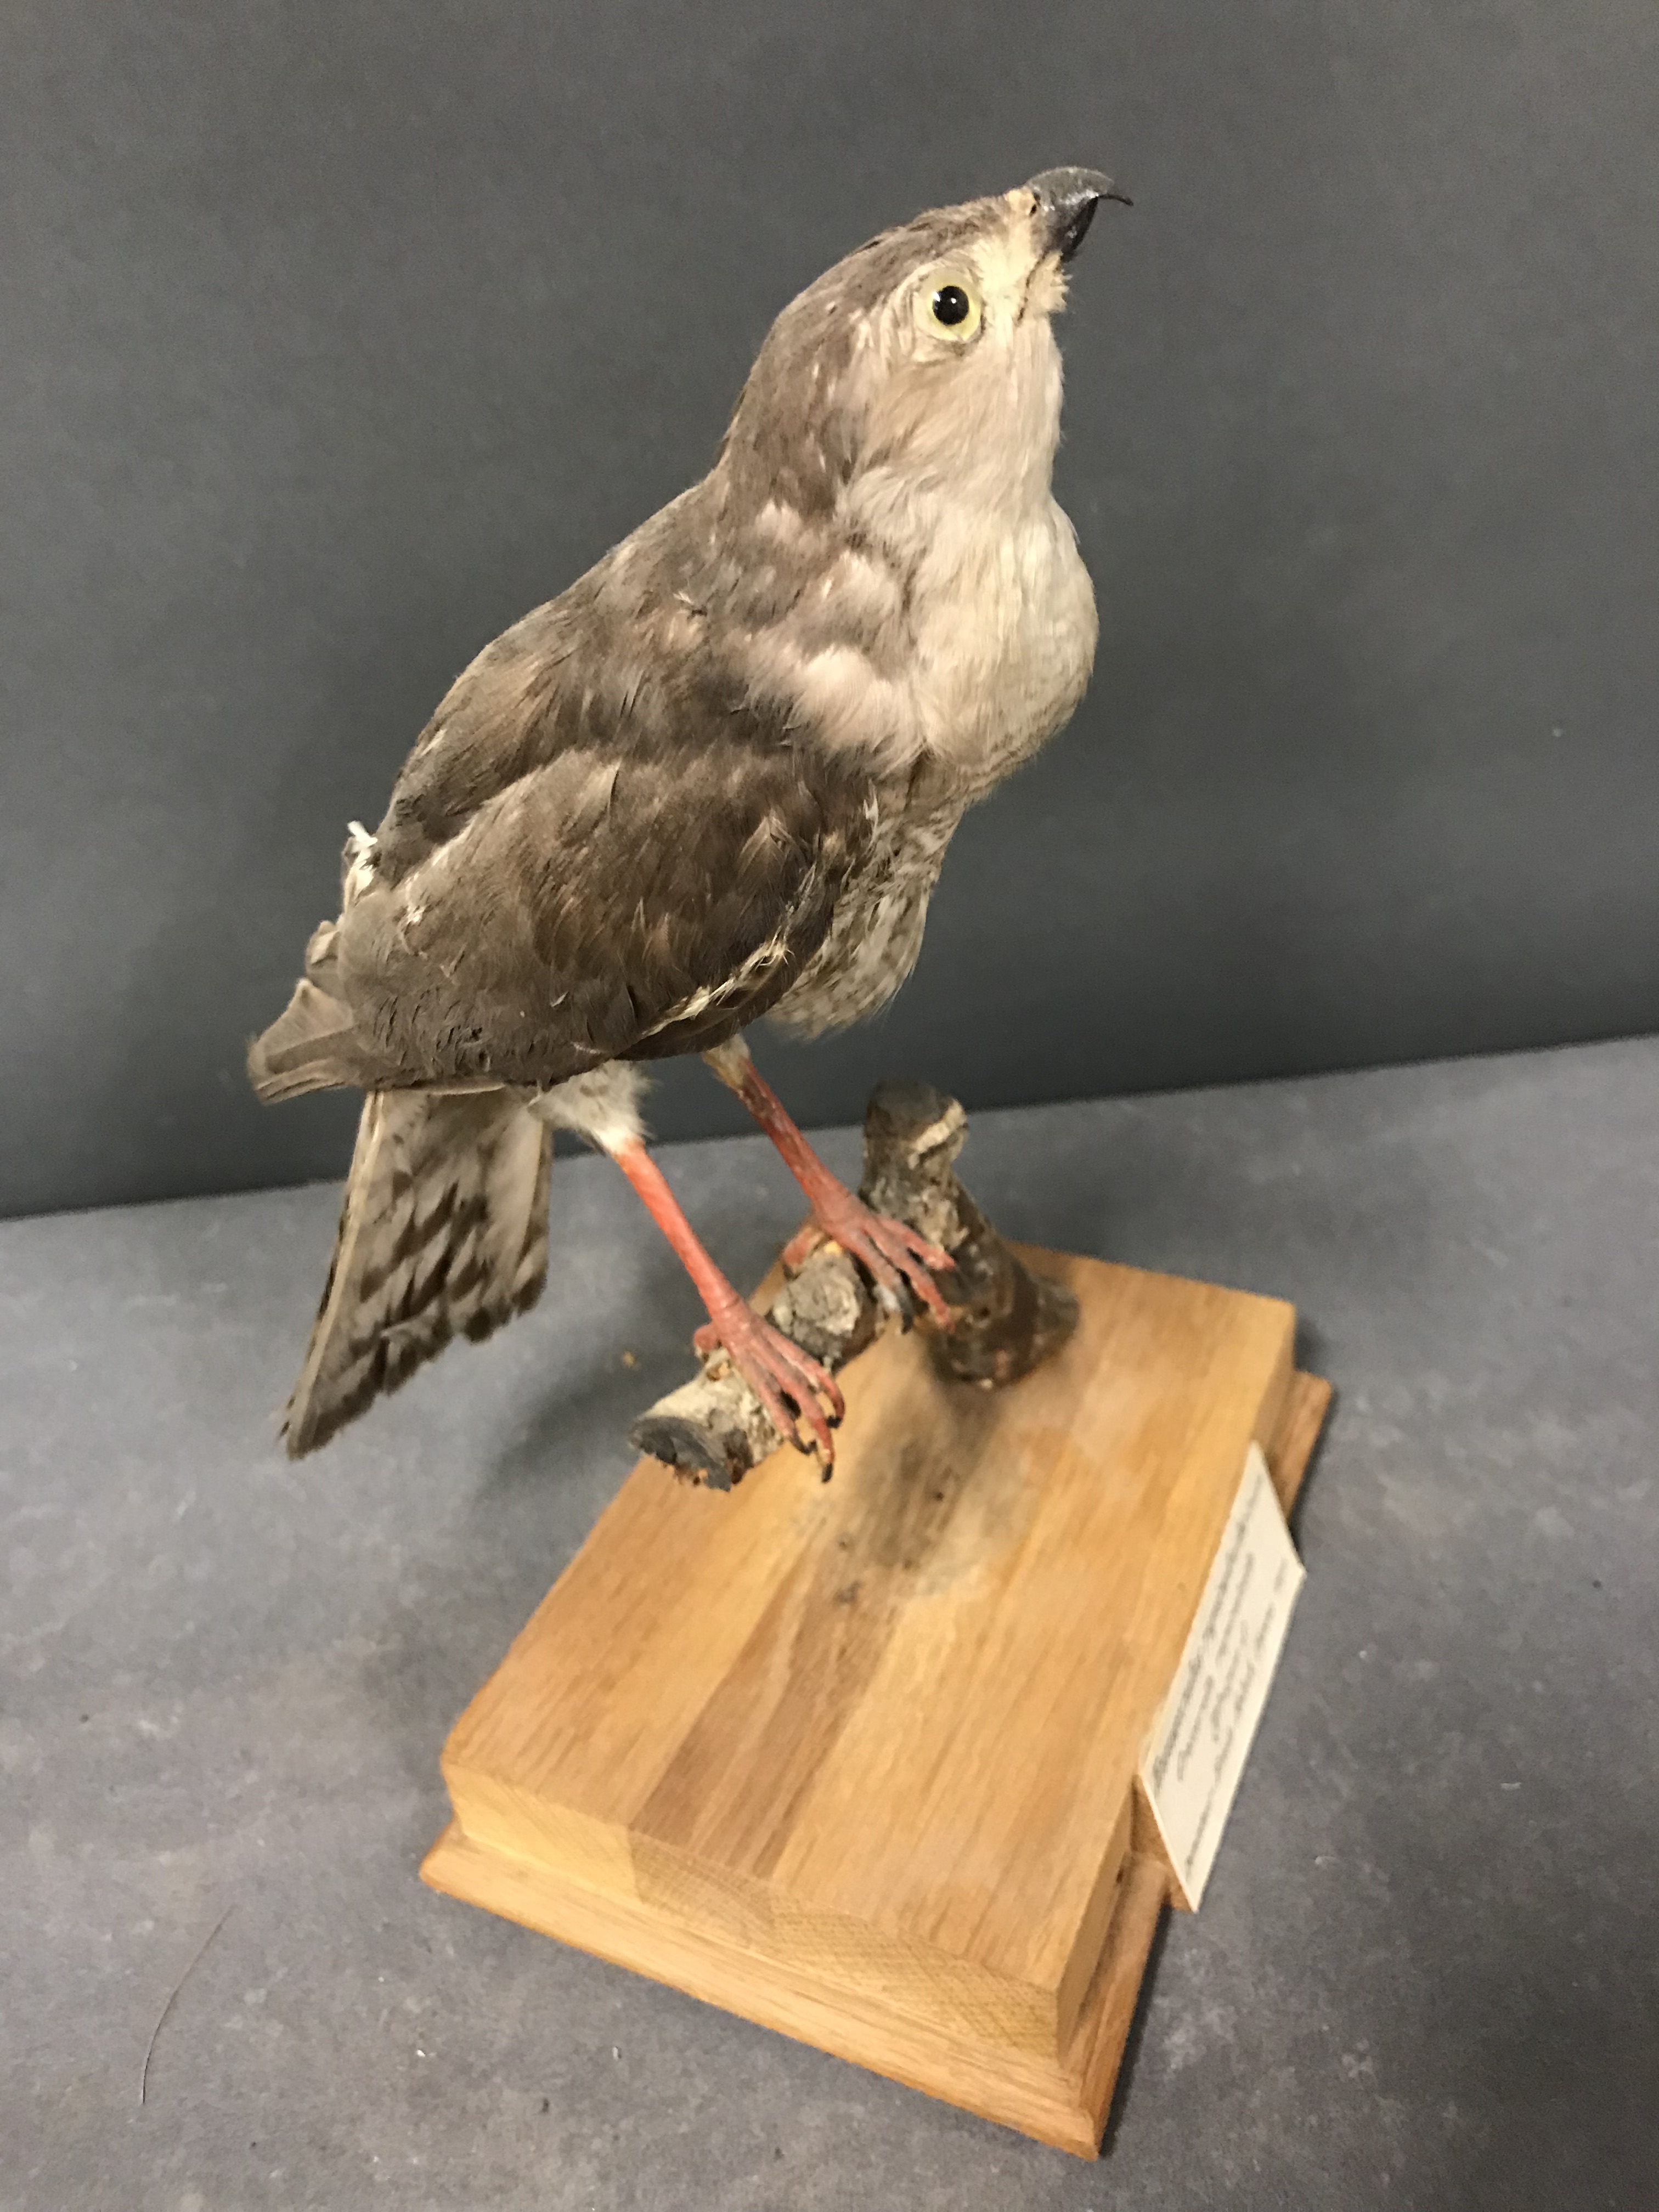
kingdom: Animalia
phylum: Chordata
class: Aves
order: Accipitriformes
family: Accipitridae
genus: Accipiter
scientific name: Accipiter ovampensis
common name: Ovambo sparrowhawk
